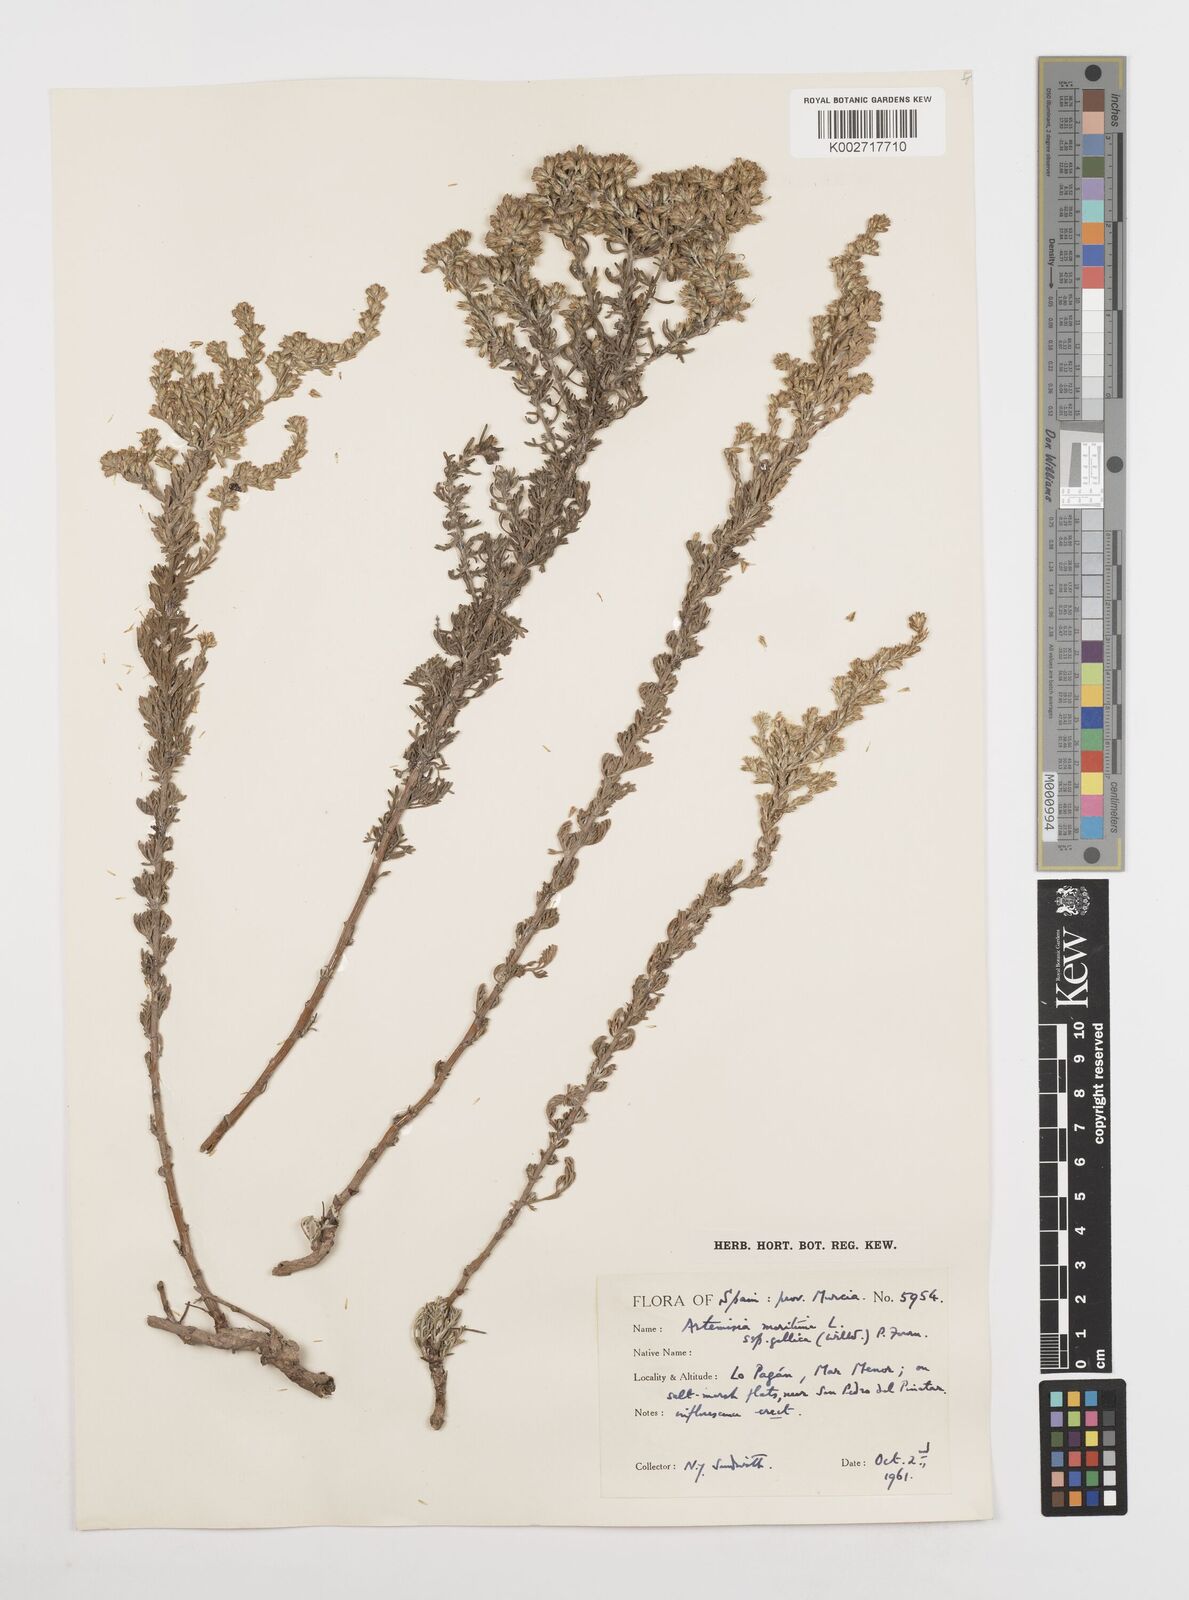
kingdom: Plantae
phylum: Tracheophyta
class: Magnoliopsida
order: Asterales
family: Asteraceae
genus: Artemisia
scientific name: Artemisia campestris
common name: Field wormwood
